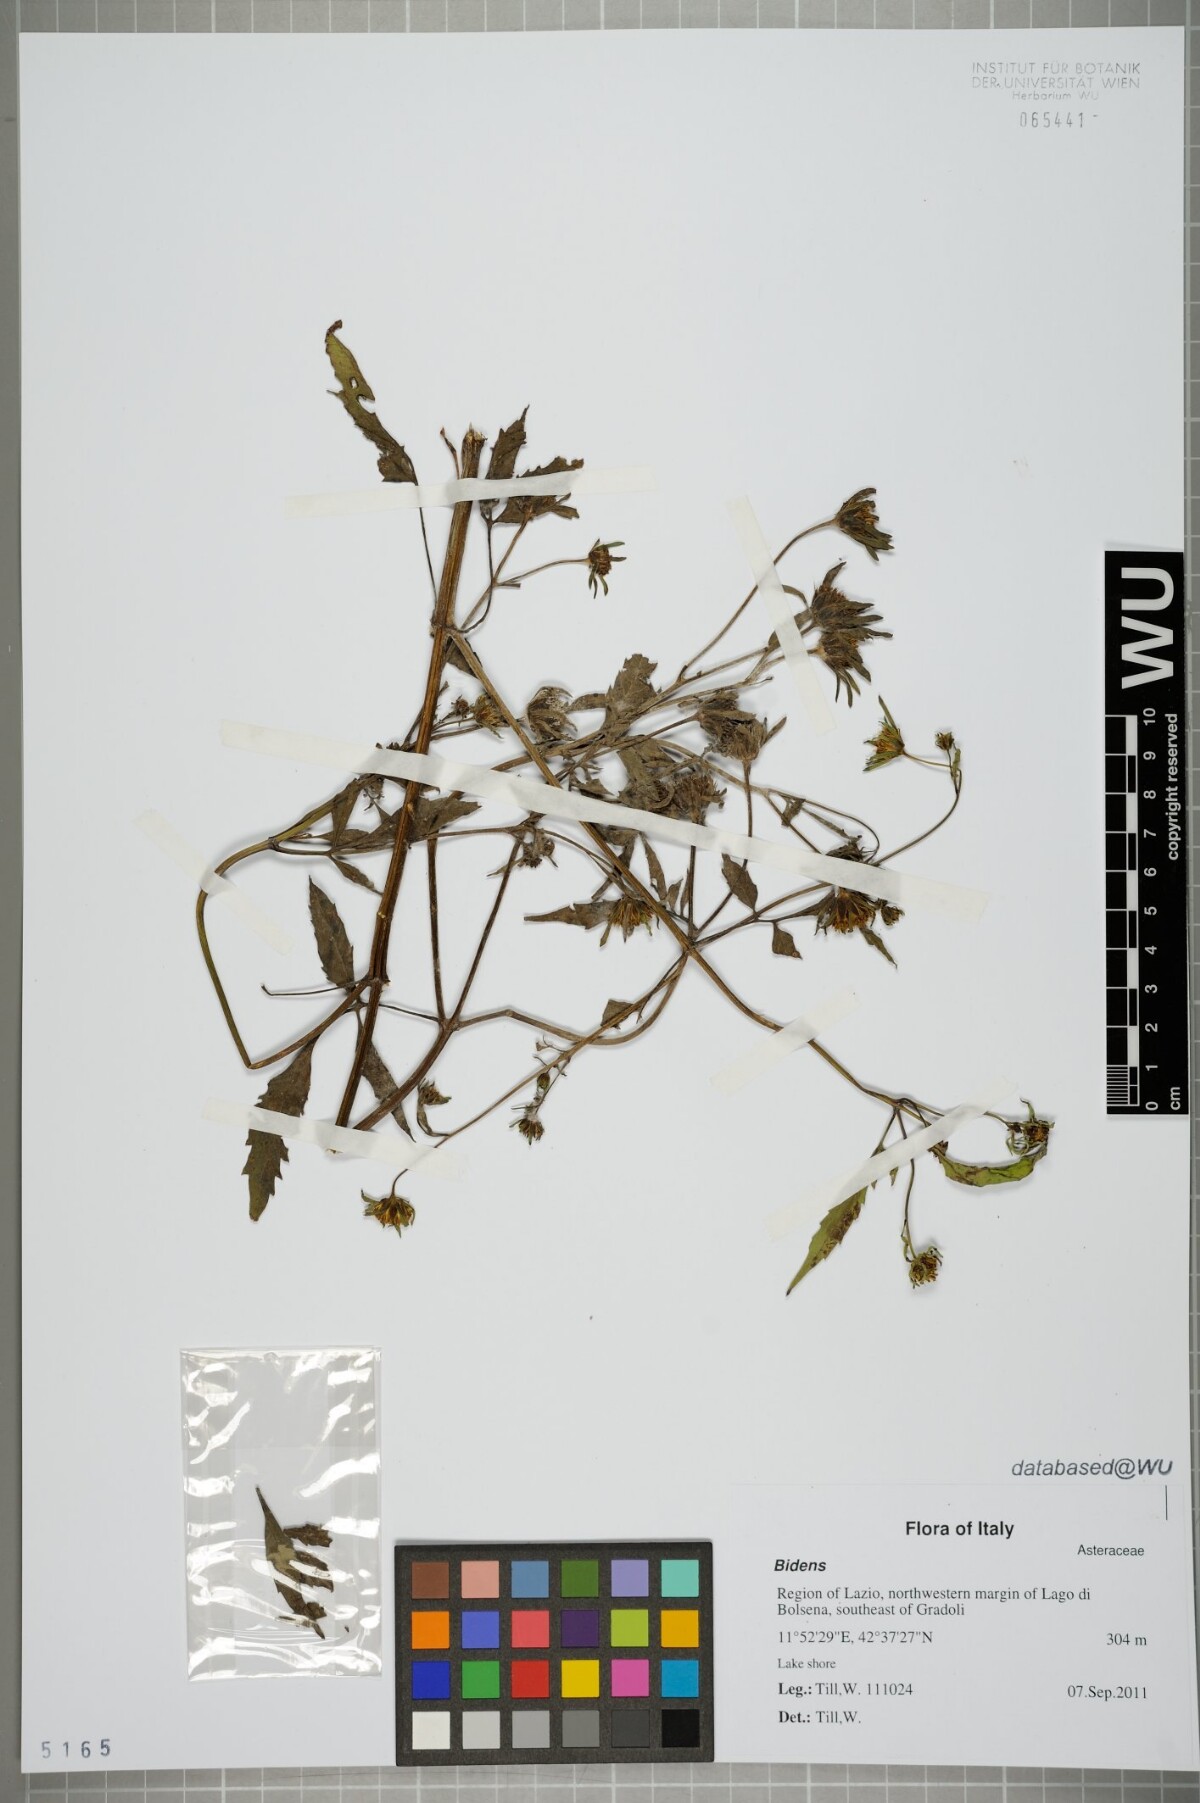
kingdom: Plantae
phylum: Tracheophyta
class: Magnoliopsida
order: Asterales
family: Asteraceae
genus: Bidens
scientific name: Bidens
